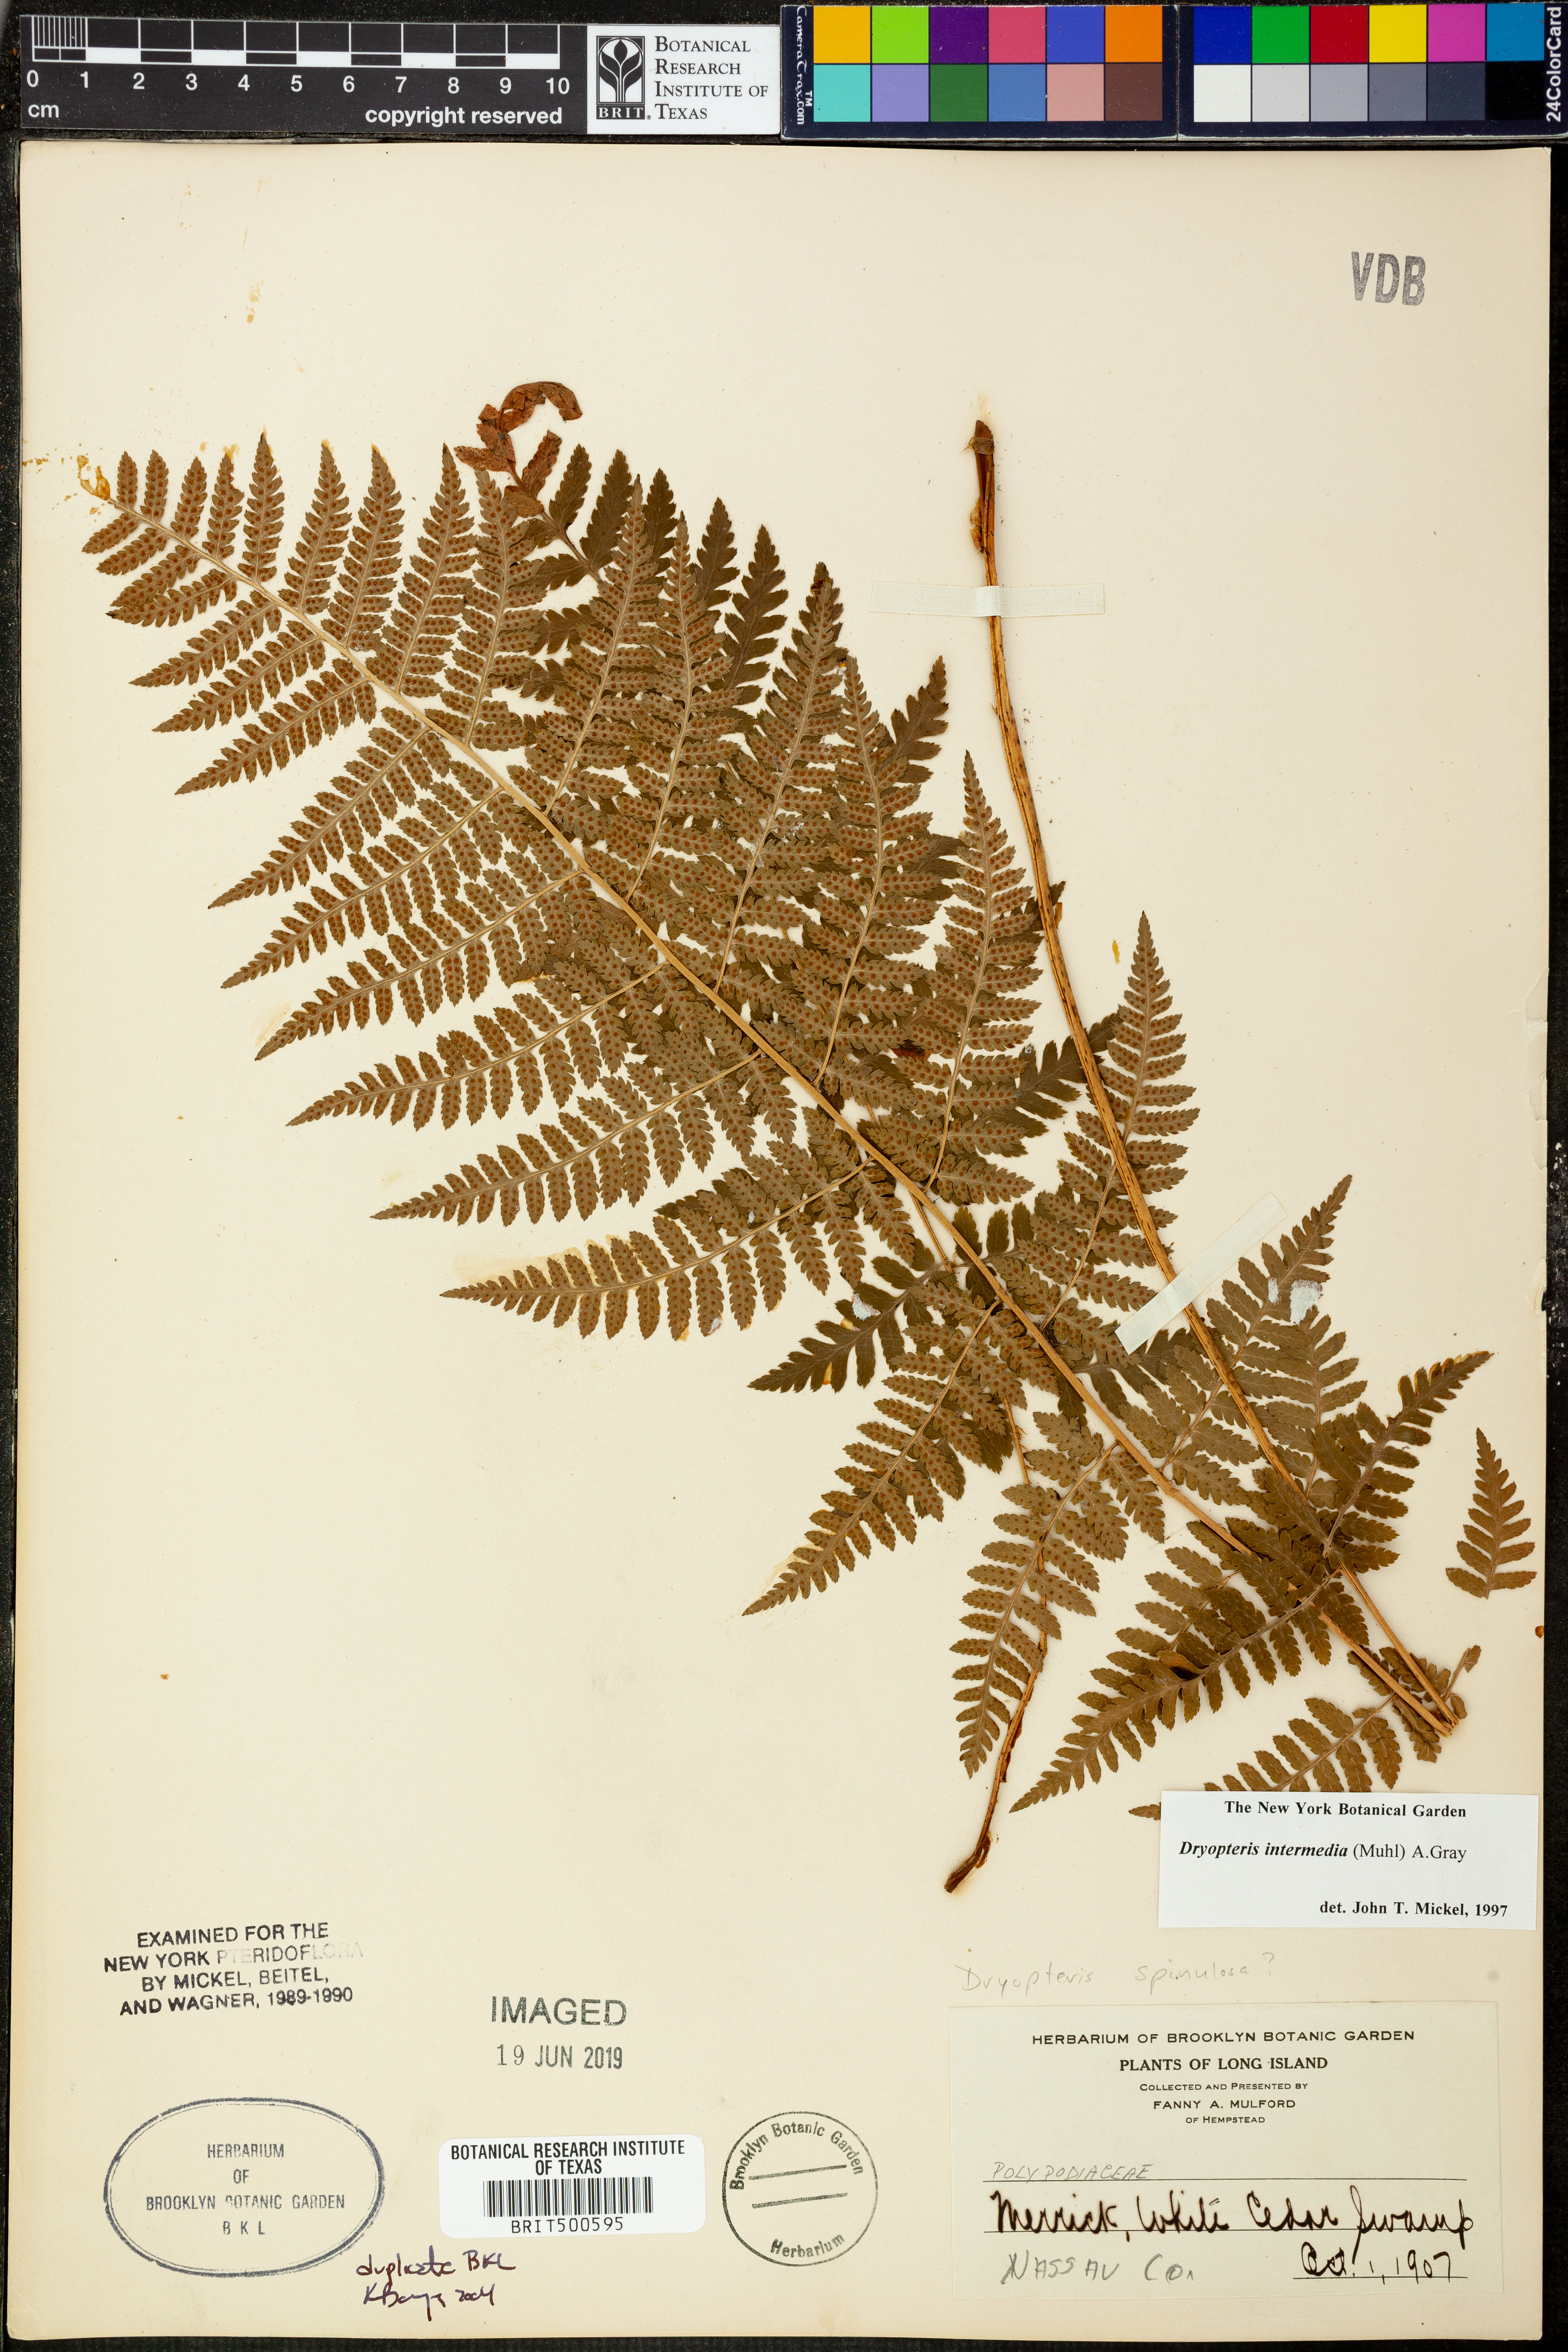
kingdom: Plantae
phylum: Tracheophyta
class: Polypodiopsida
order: Polypodiales
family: Dryopteridaceae
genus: Dryopteris
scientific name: Dryopteris intermedia
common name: Evergreen wood fern
